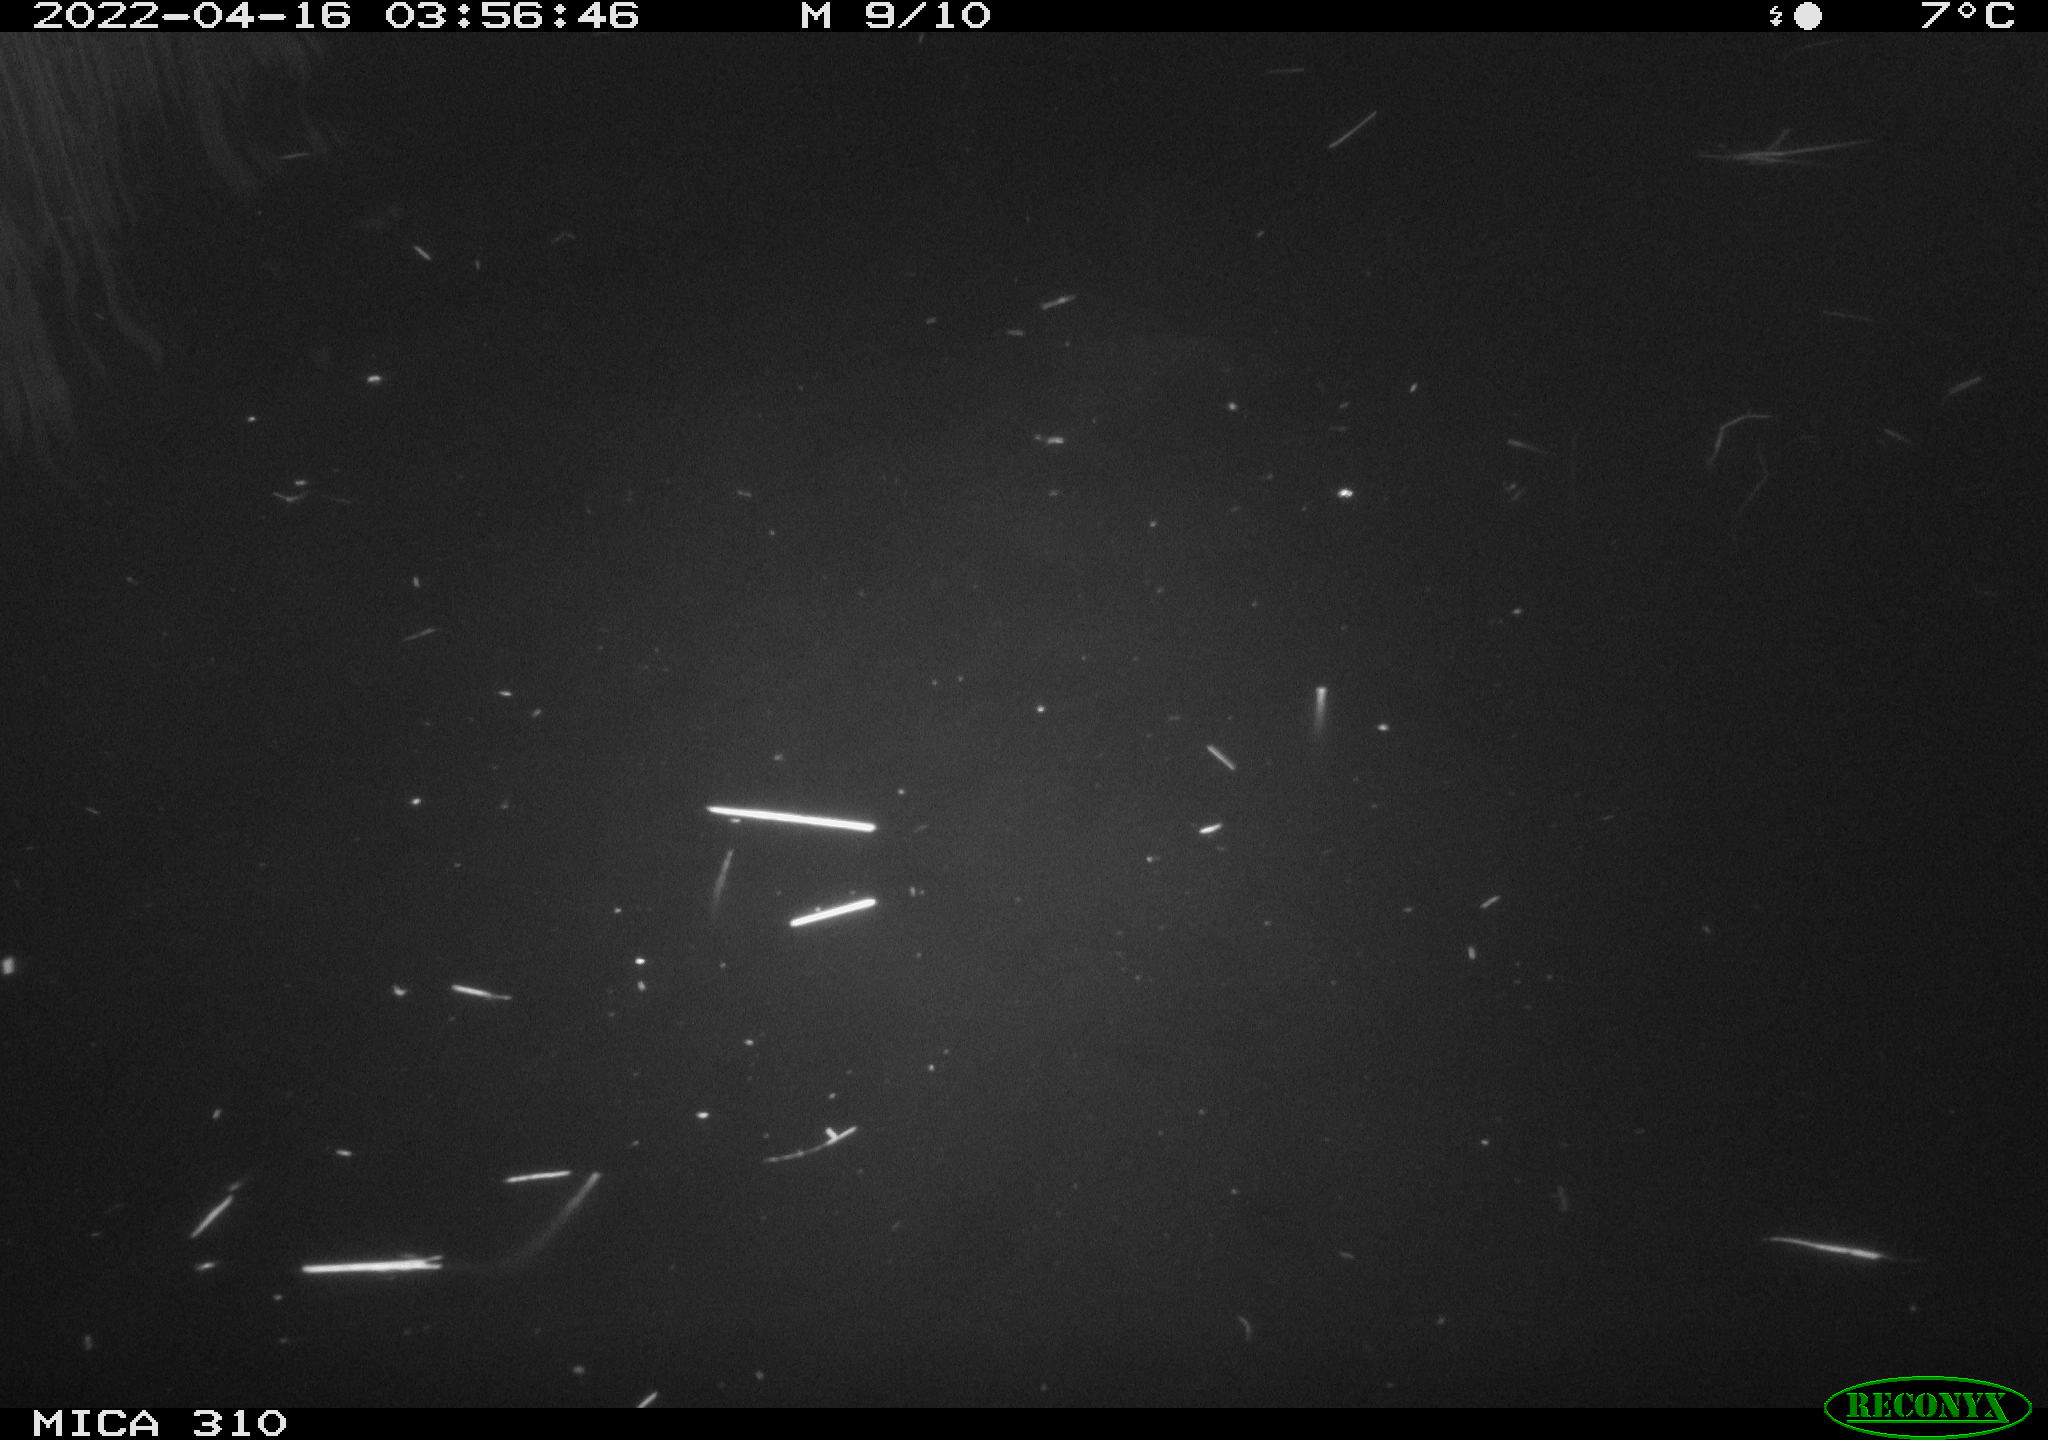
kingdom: Animalia
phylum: Chordata
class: Aves
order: Anseriformes
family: Anatidae
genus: Anas
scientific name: Anas platyrhynchos
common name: Mallard
